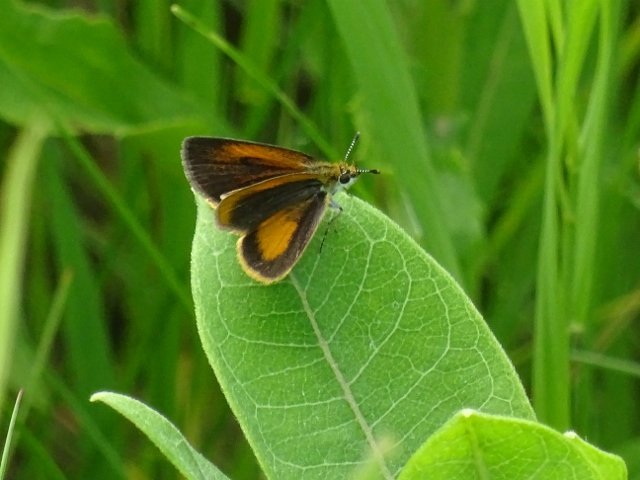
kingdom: Animalia
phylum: Arthropoda
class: Insecta
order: Lepidoptera
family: Hesperiidae
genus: Ancyloxypha
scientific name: Ancyloxypha numitor
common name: Least Skipper
